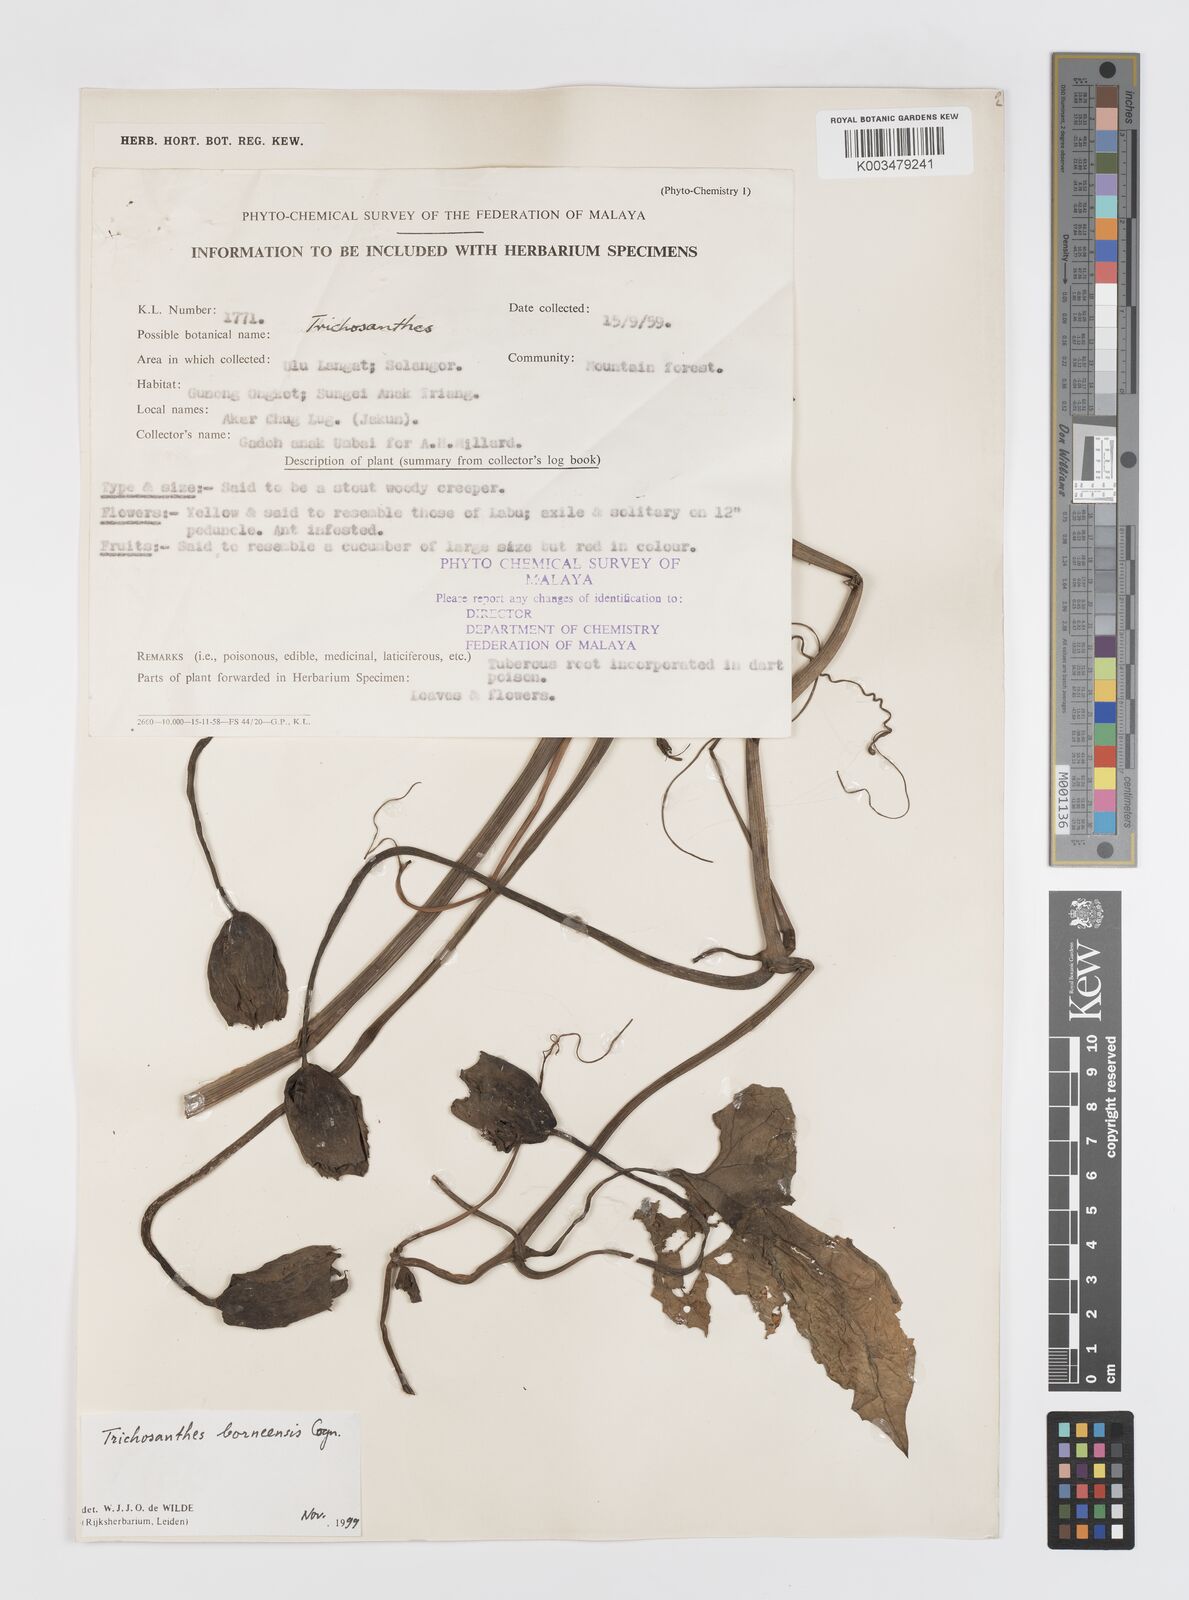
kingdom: Plantae
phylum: Tracheophyta
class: Magnoliopsida
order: Cucurbitales
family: Cucurbitaceae
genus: Trichosanthes
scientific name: Trichosanthes borneensis
